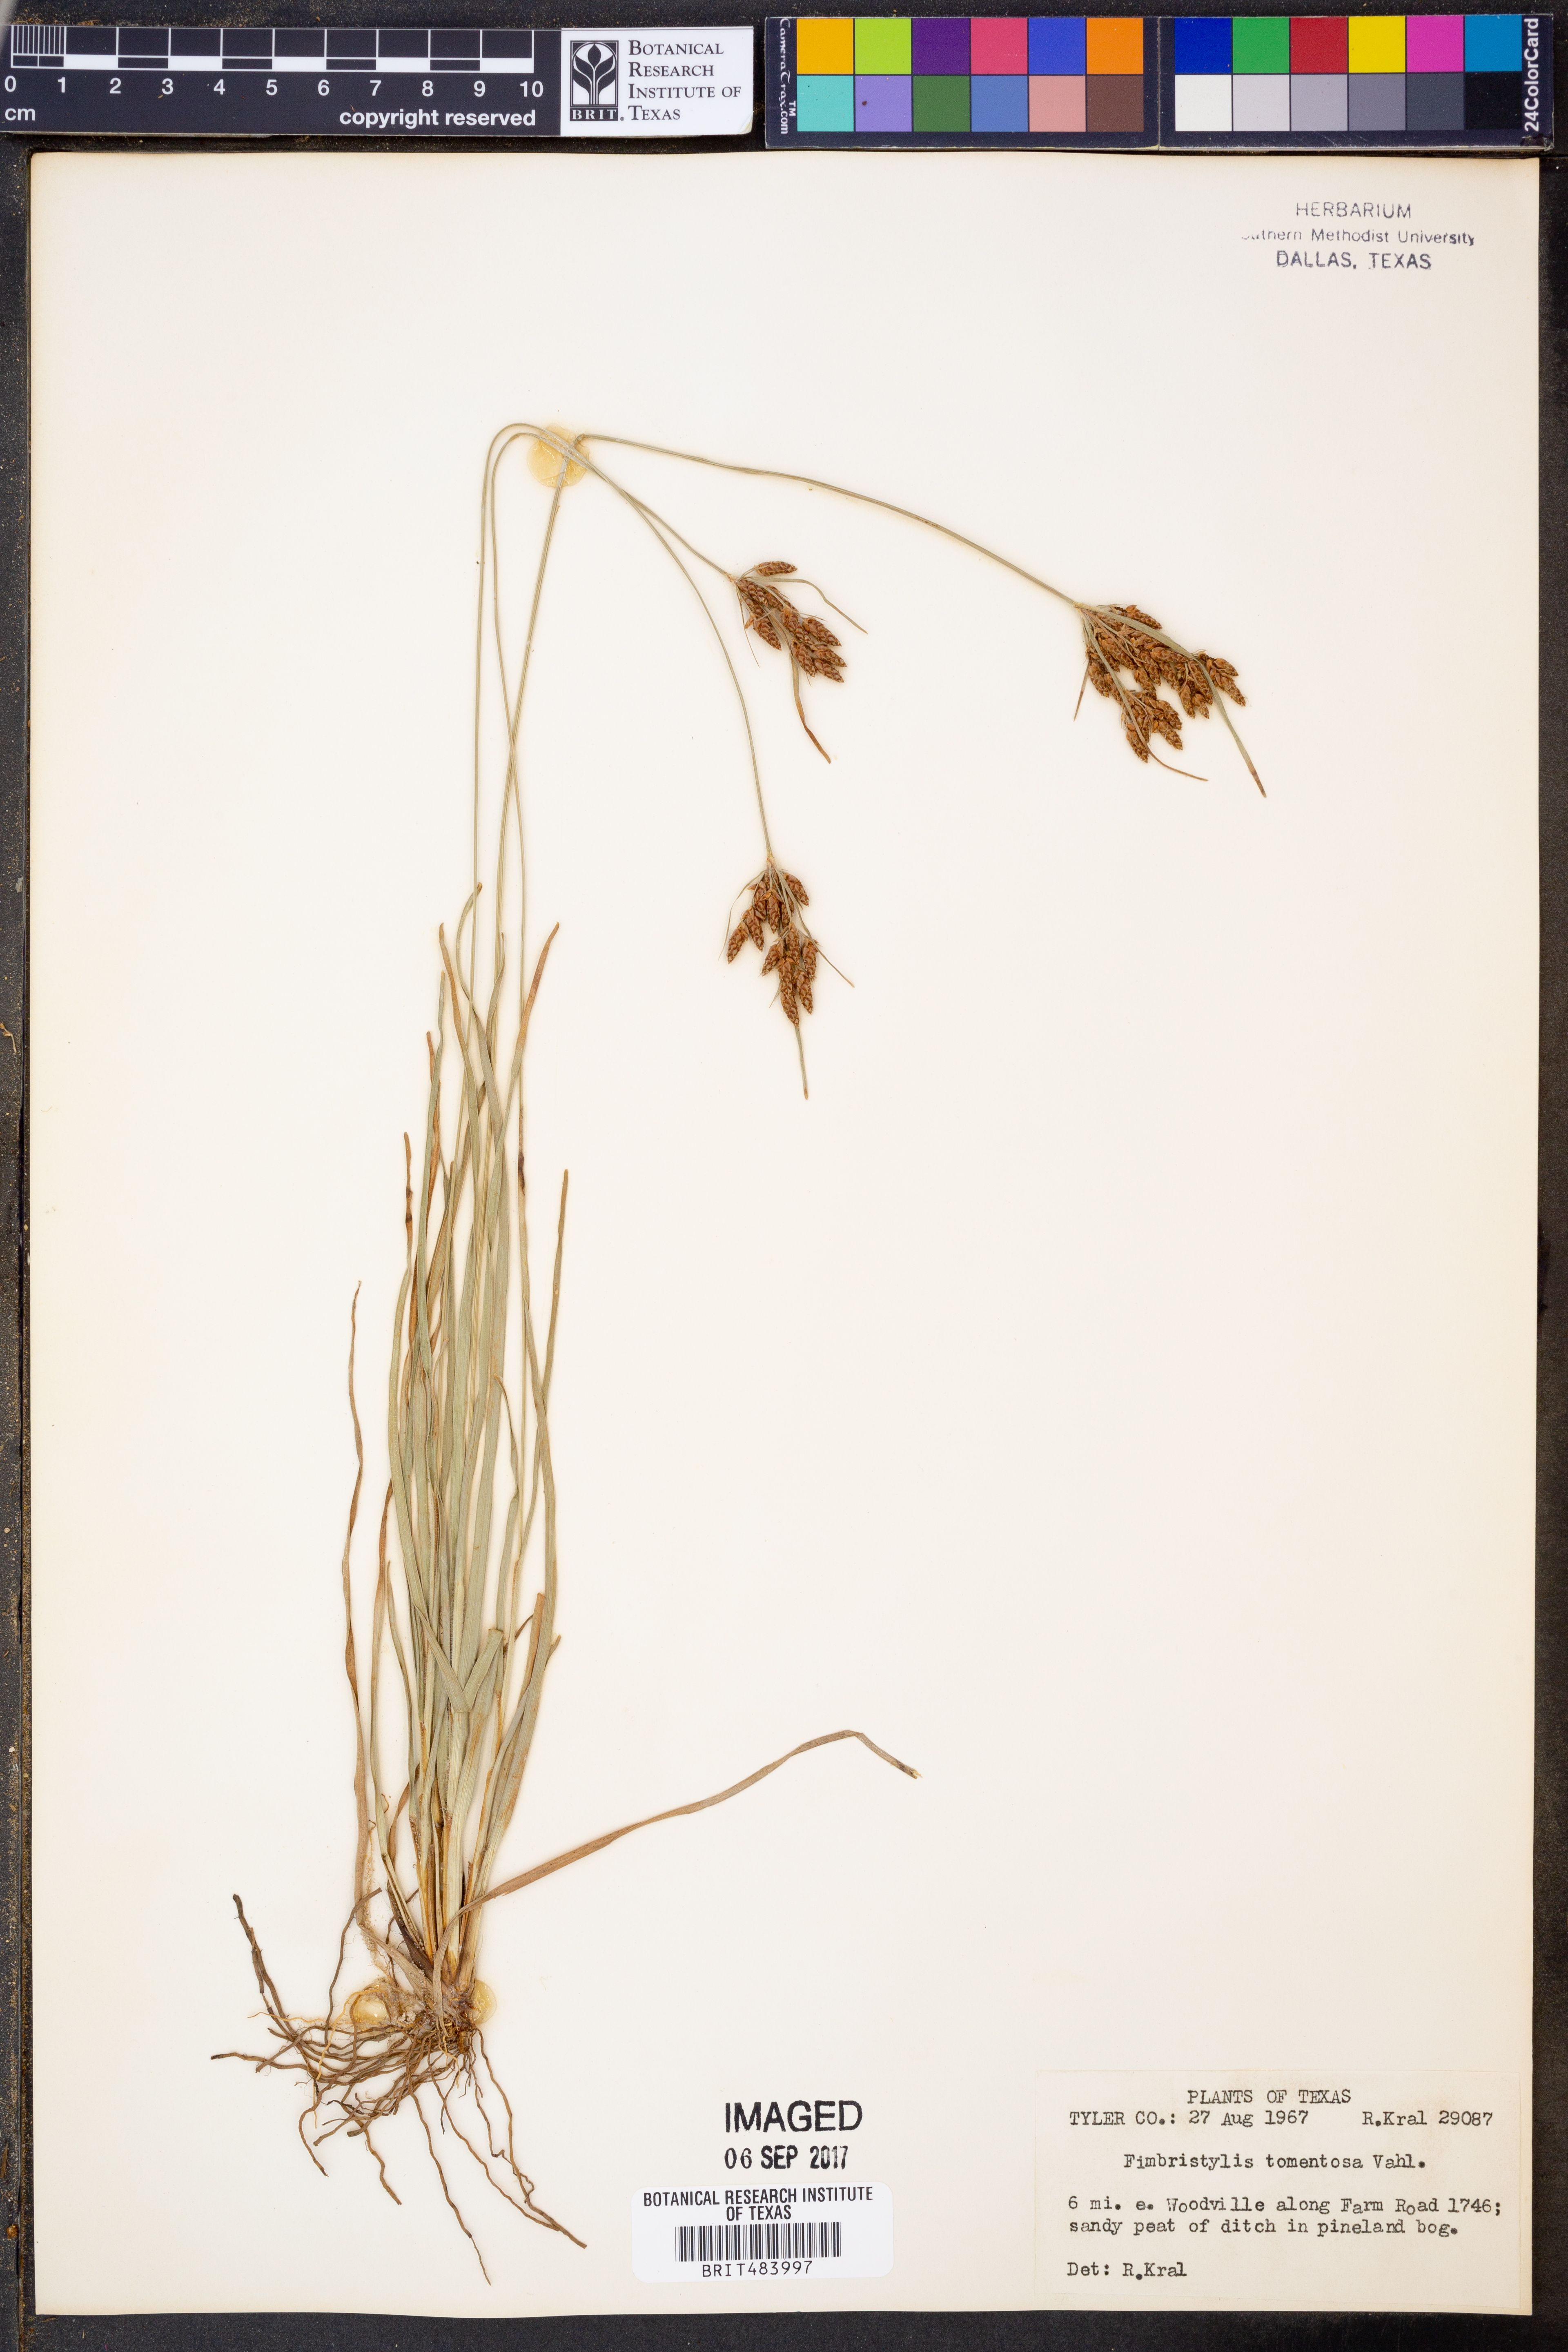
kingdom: Plantae
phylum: Tracheophyta
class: Liliopsida
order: Poales
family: Cyperaceae
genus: Fimbristylis
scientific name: Fimbristylis dichotoma
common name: Forked fimbry
